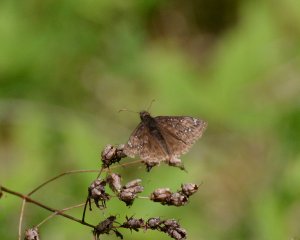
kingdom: Animalia
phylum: Arthropoda
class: Insecta
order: Lepidoptera
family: Hesperiidae
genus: Gesta
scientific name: Gesta
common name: Juvenal's Duskywing
